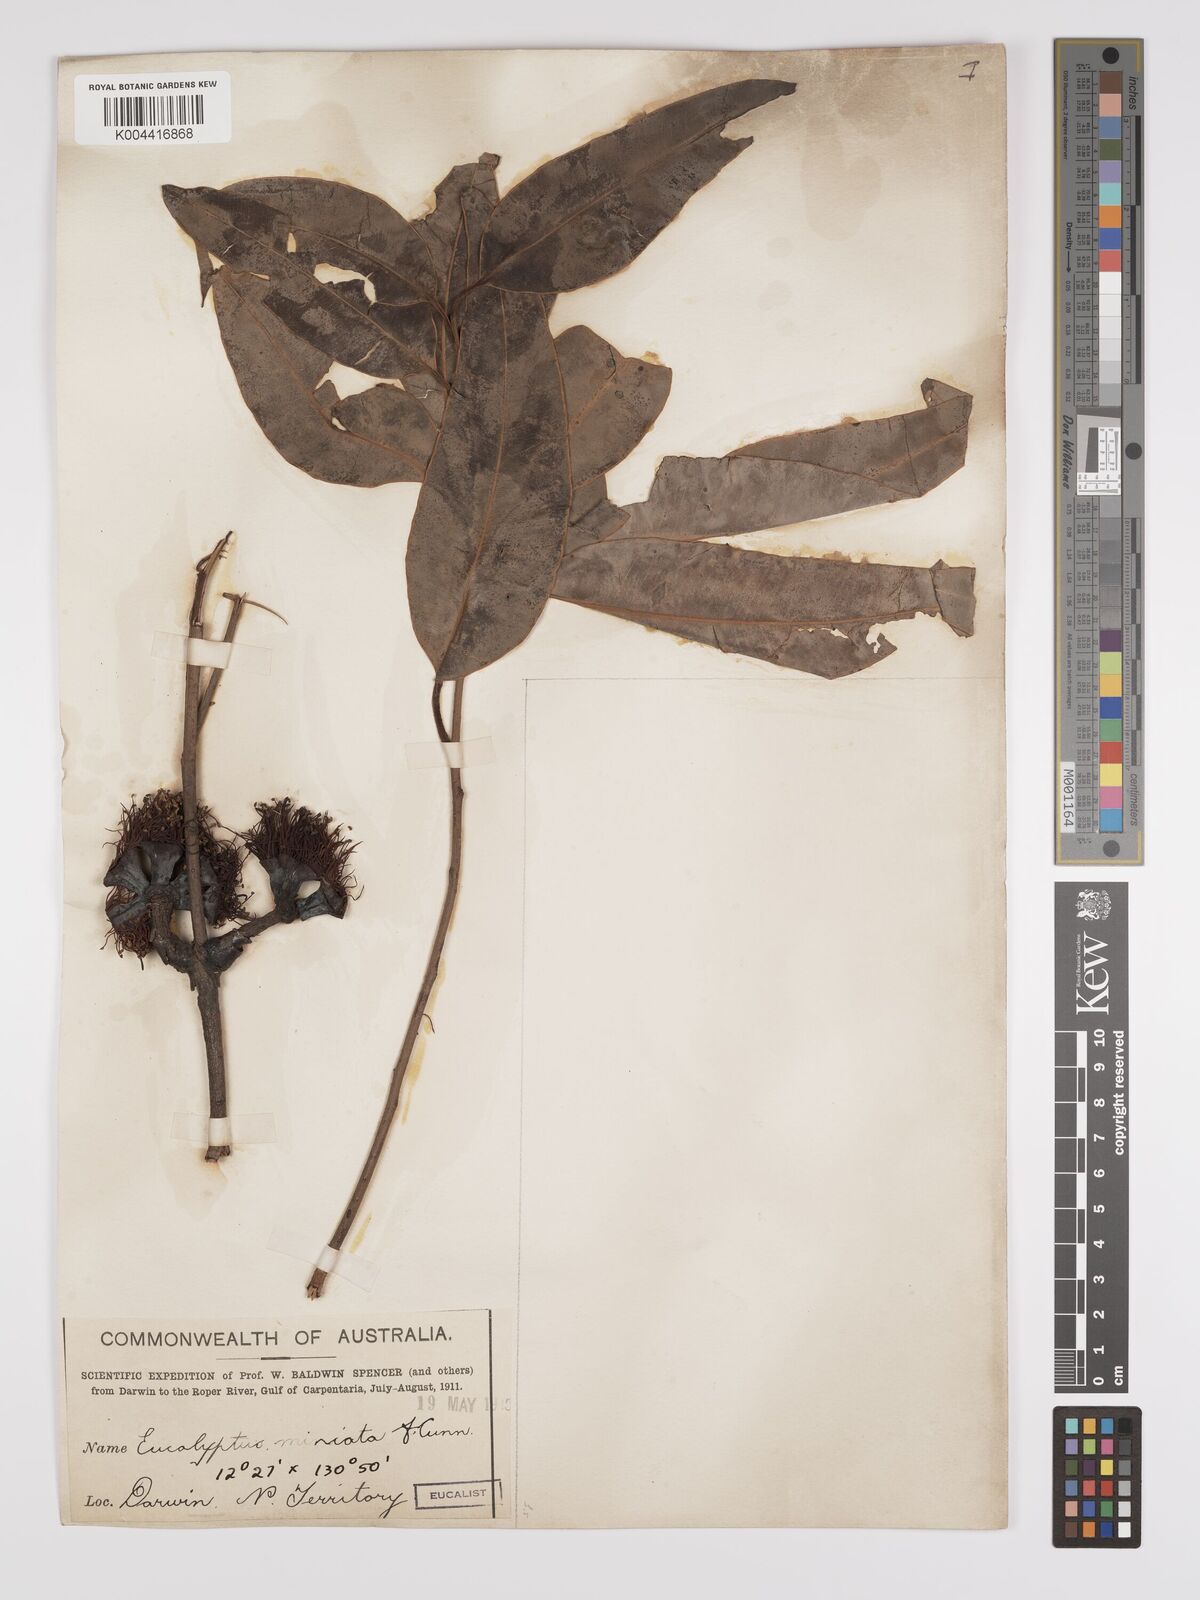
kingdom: Plantae
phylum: Tracheophyta
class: Magnoliopsida
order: Myrtales
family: Myrtaceae
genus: Eucalyptus
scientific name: Eucalyptus miniata
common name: Darwin-woollybutt
